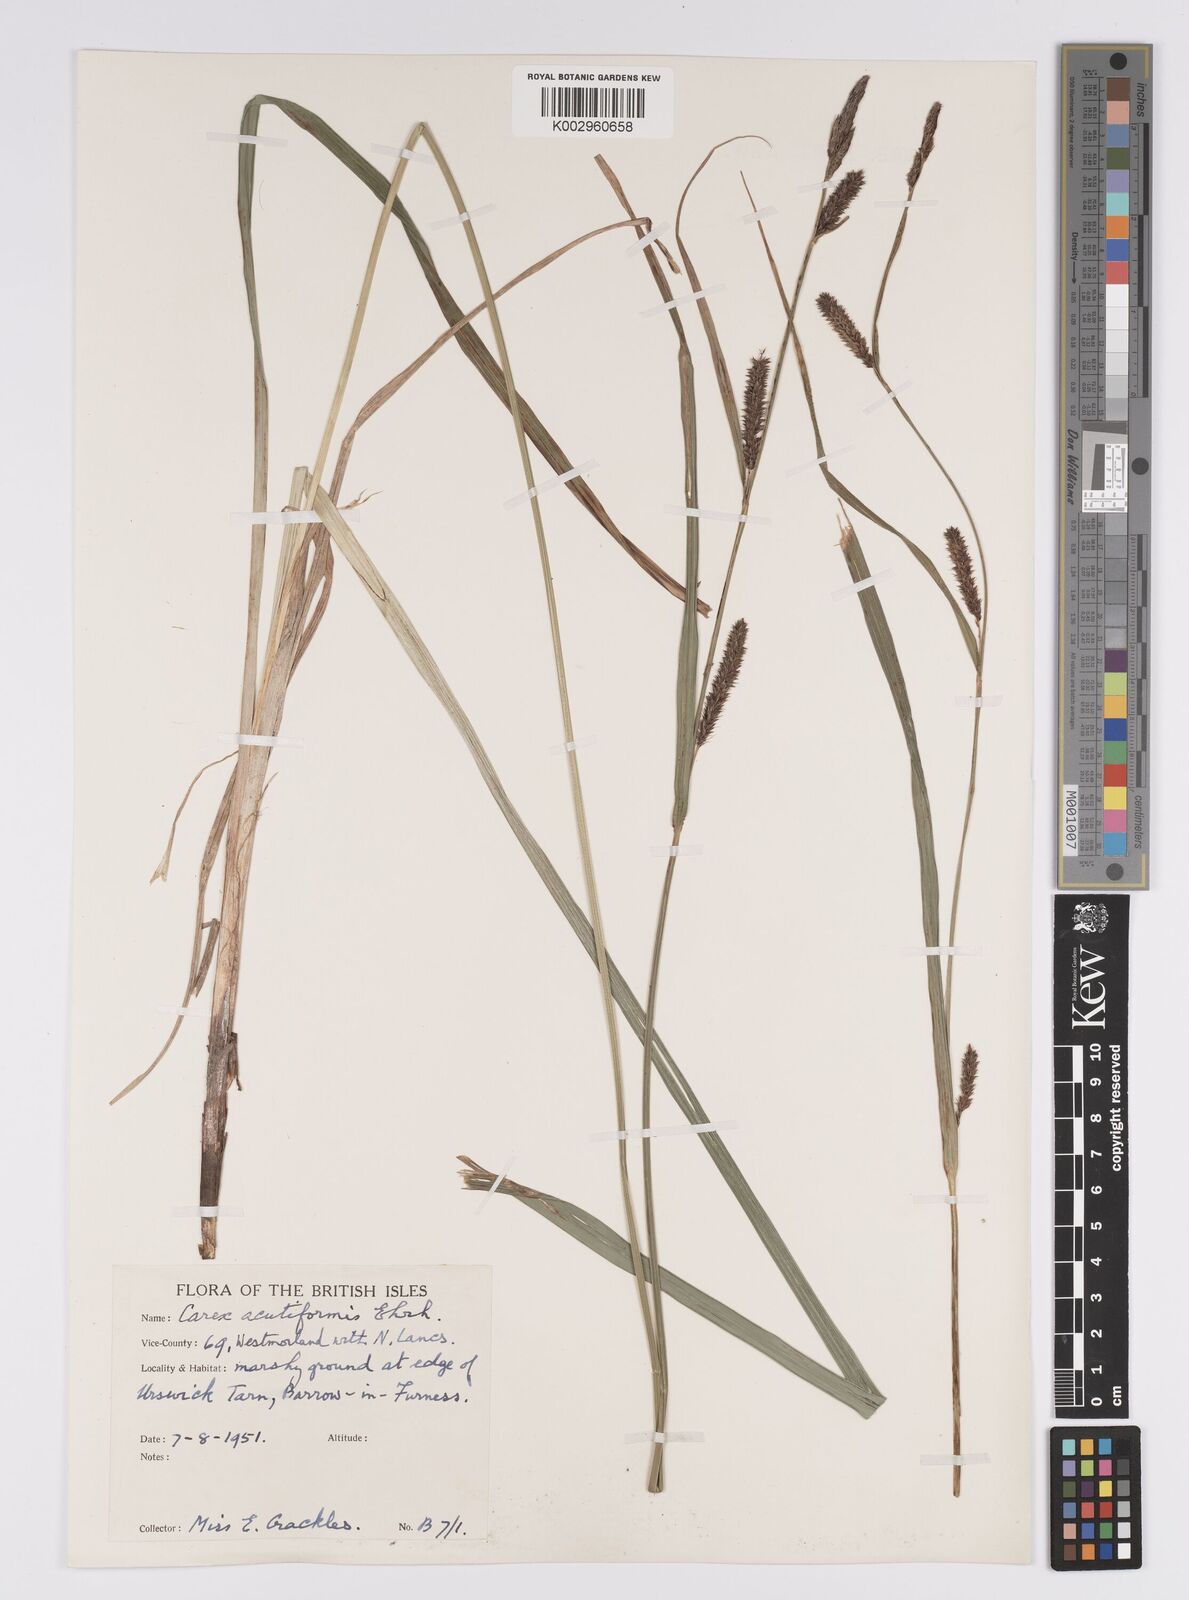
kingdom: Plantae
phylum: Tracheophyta
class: Liliopsida
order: Poales
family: Cyperaceae
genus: Carex
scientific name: Carex acutiformis
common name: Lesser pond-sedge
